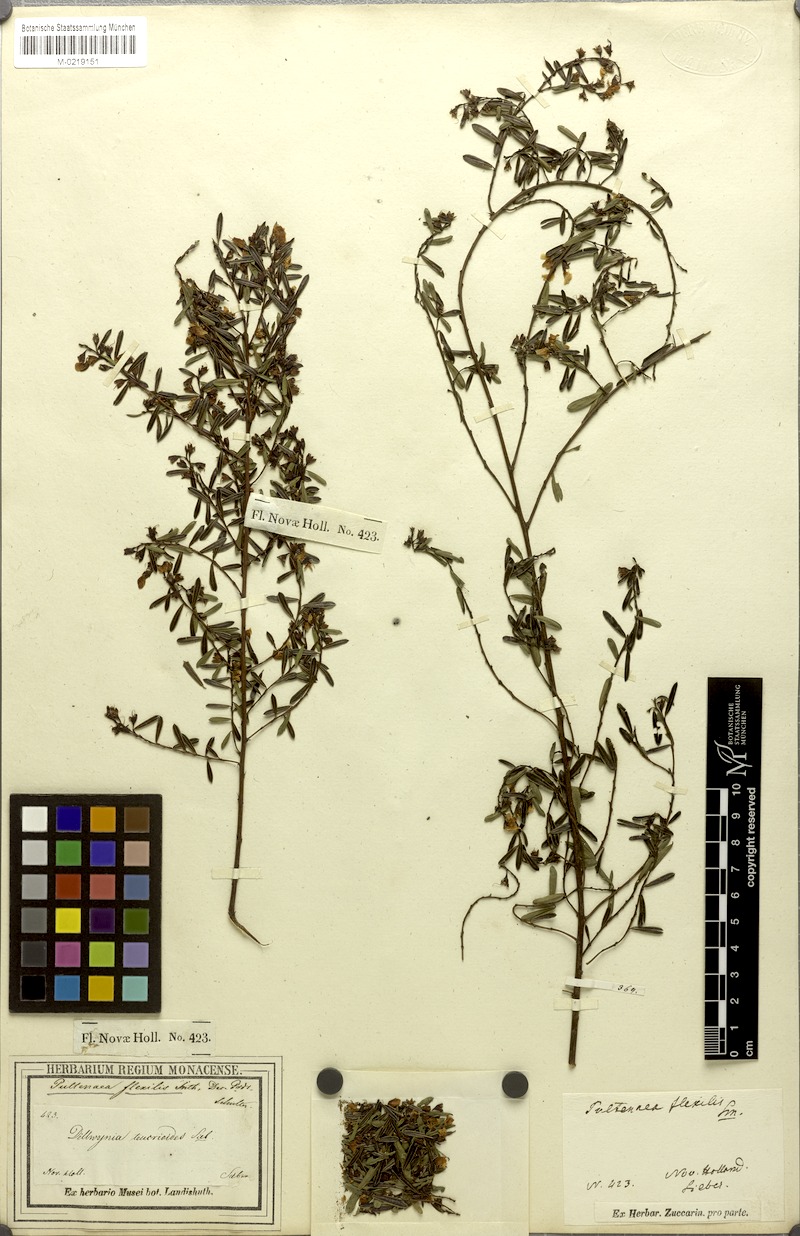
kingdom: Plantae
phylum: Tracheophyta
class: Magnoliopsida
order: Fabales
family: Fabaceae
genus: Pultenaea
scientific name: Pultenaea flexilis
